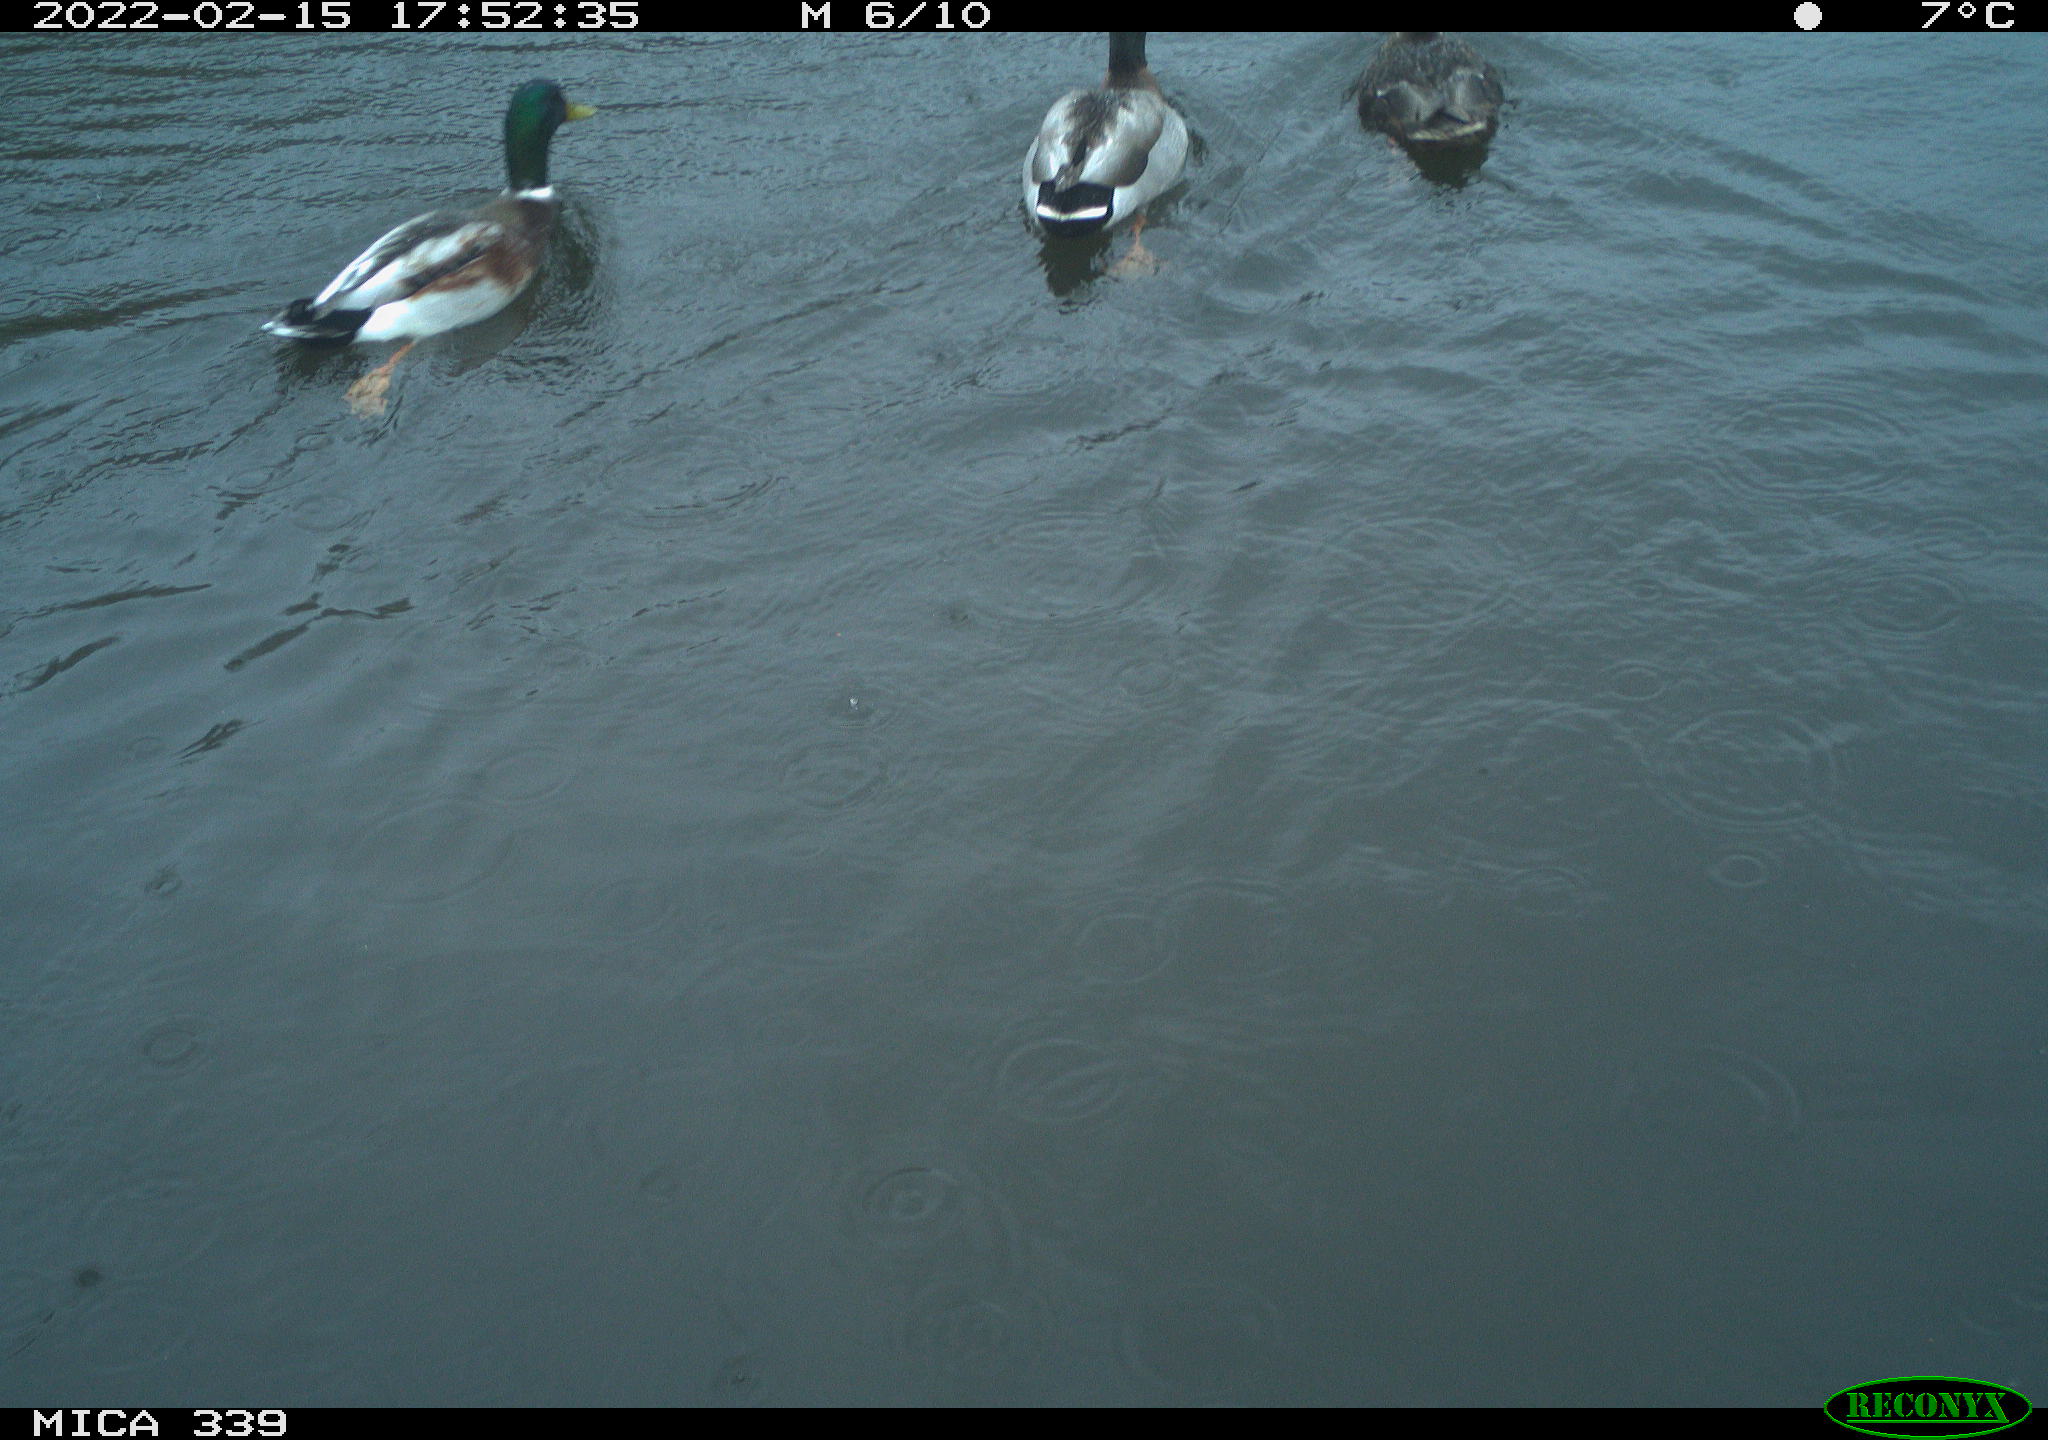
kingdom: Animalia
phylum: Chordata
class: Aves
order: Anseriformes
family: Anatidae
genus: Anas
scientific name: Anas platyrhynchos
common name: Mallard
